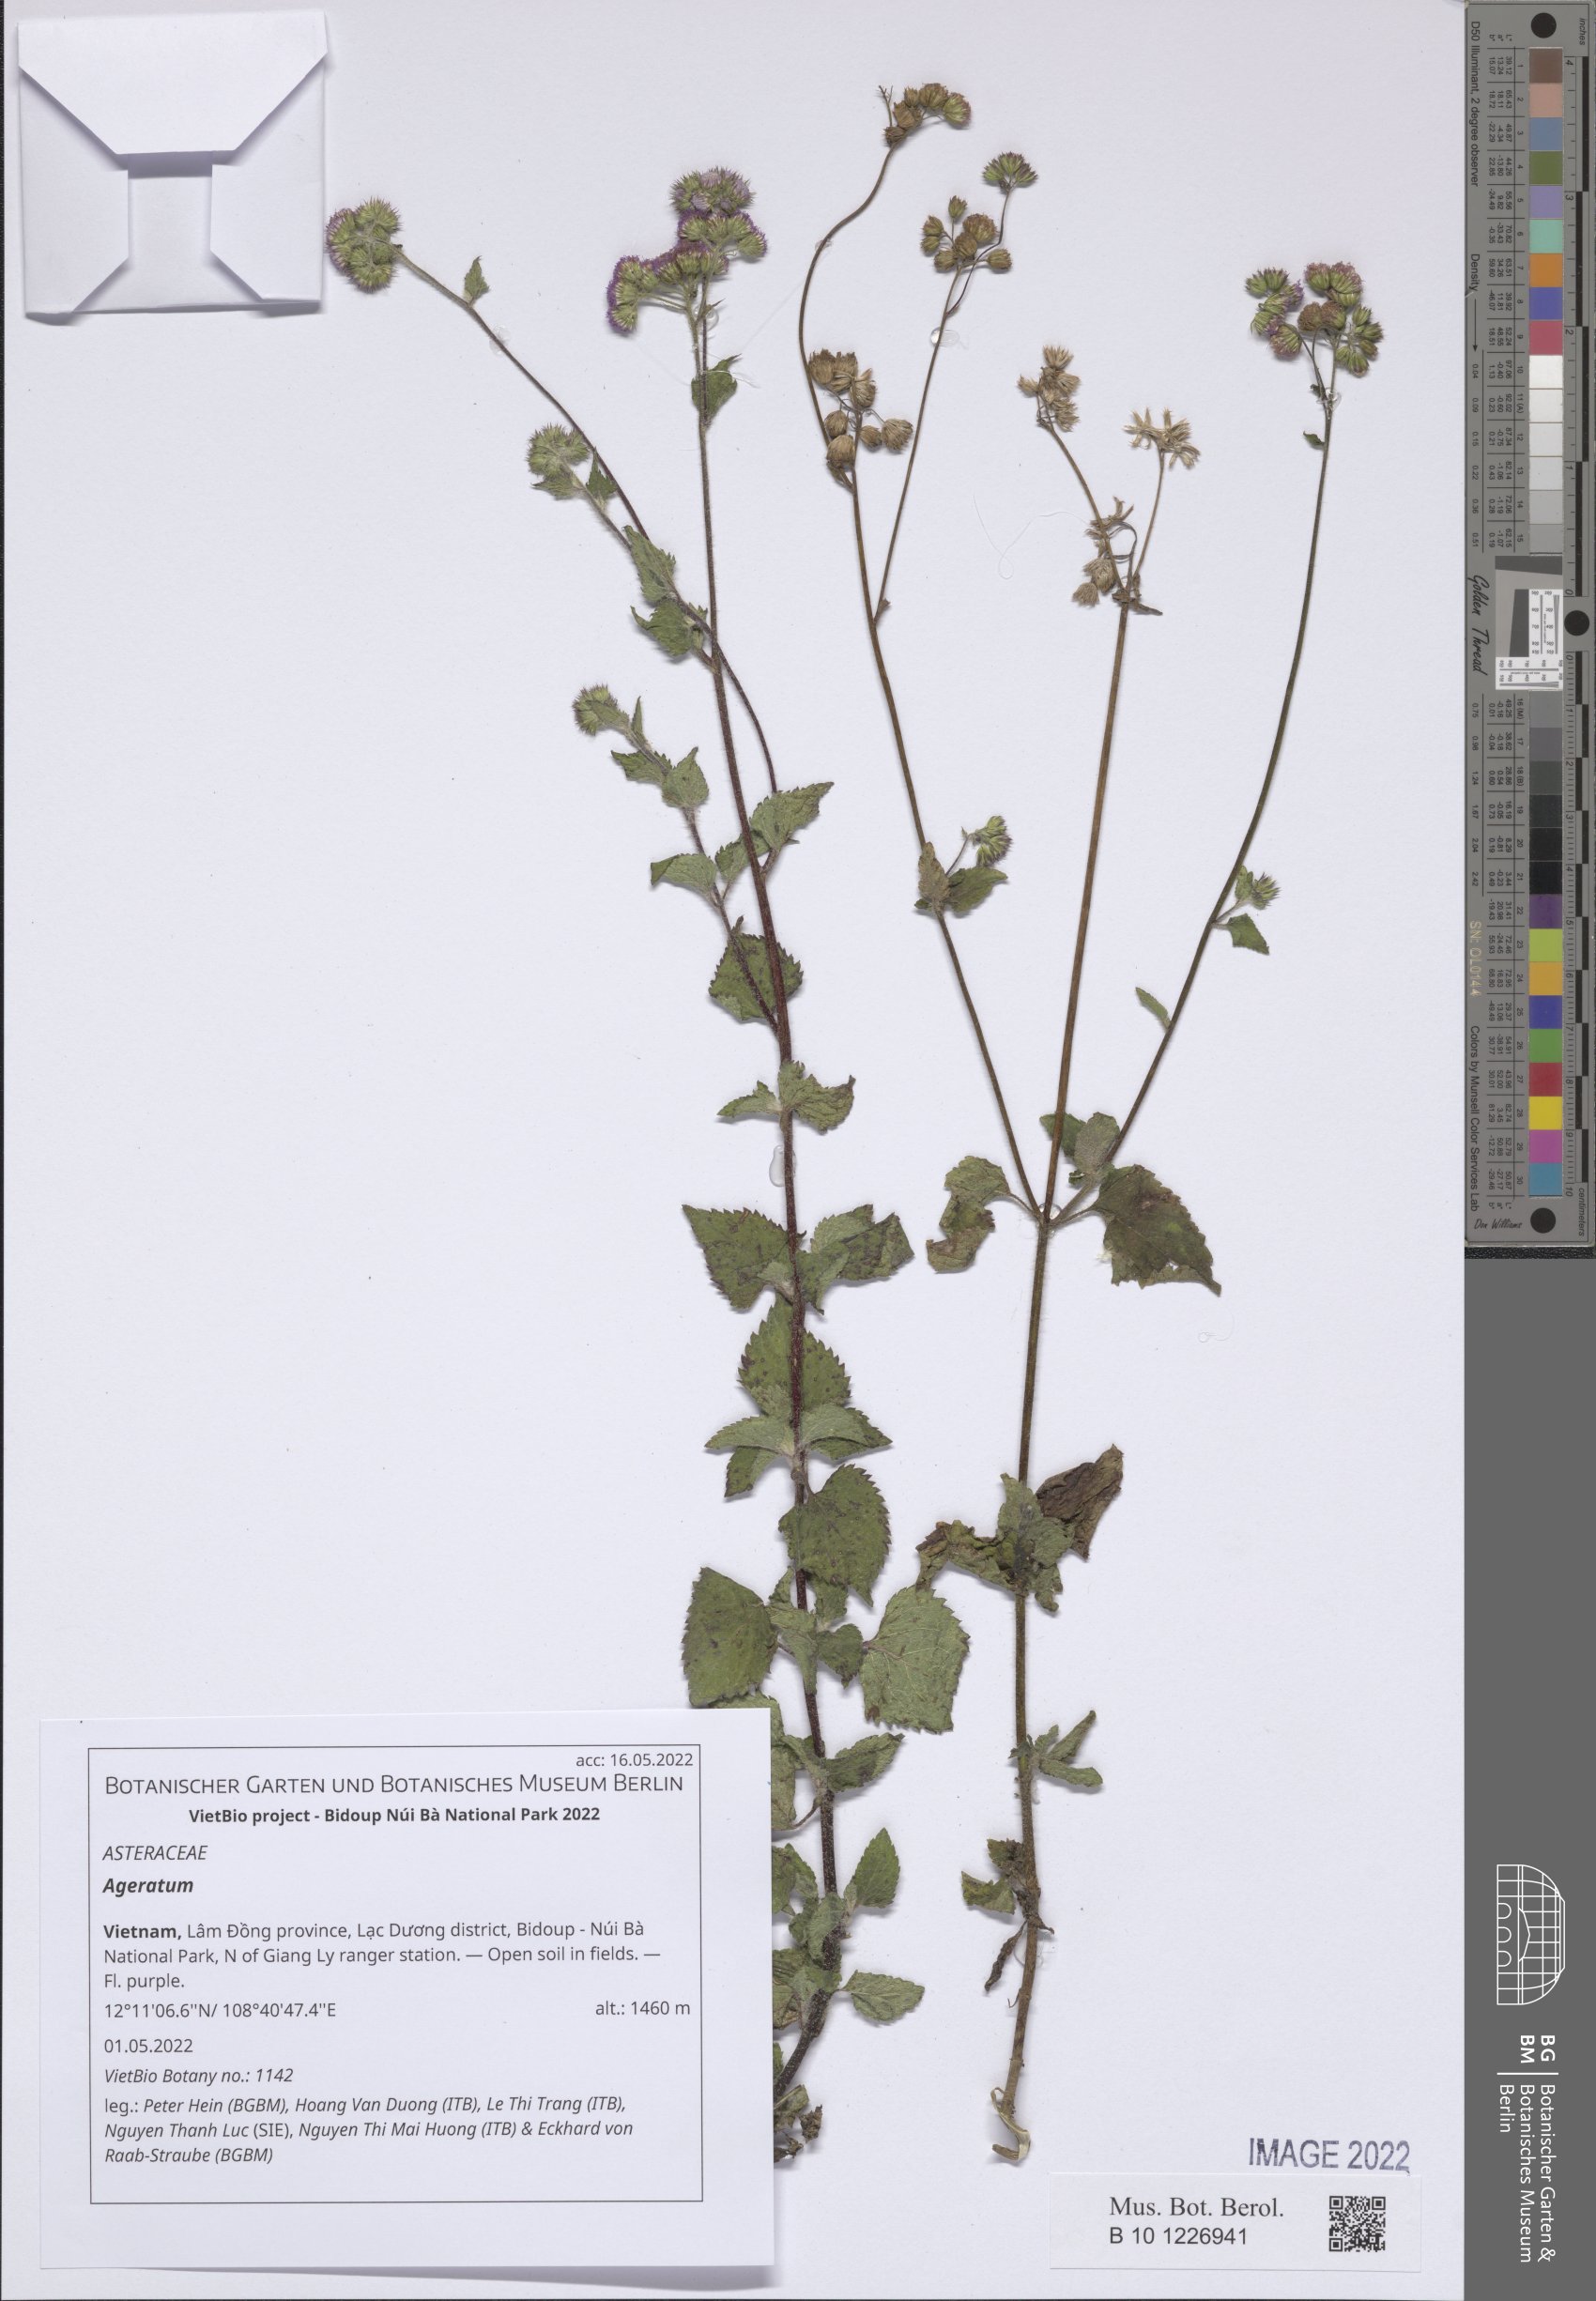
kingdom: Plantae
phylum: Tracheophyta
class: Magnoliopsida
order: Asterales
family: Asteraceae
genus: Ageratum
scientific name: Ageratum
